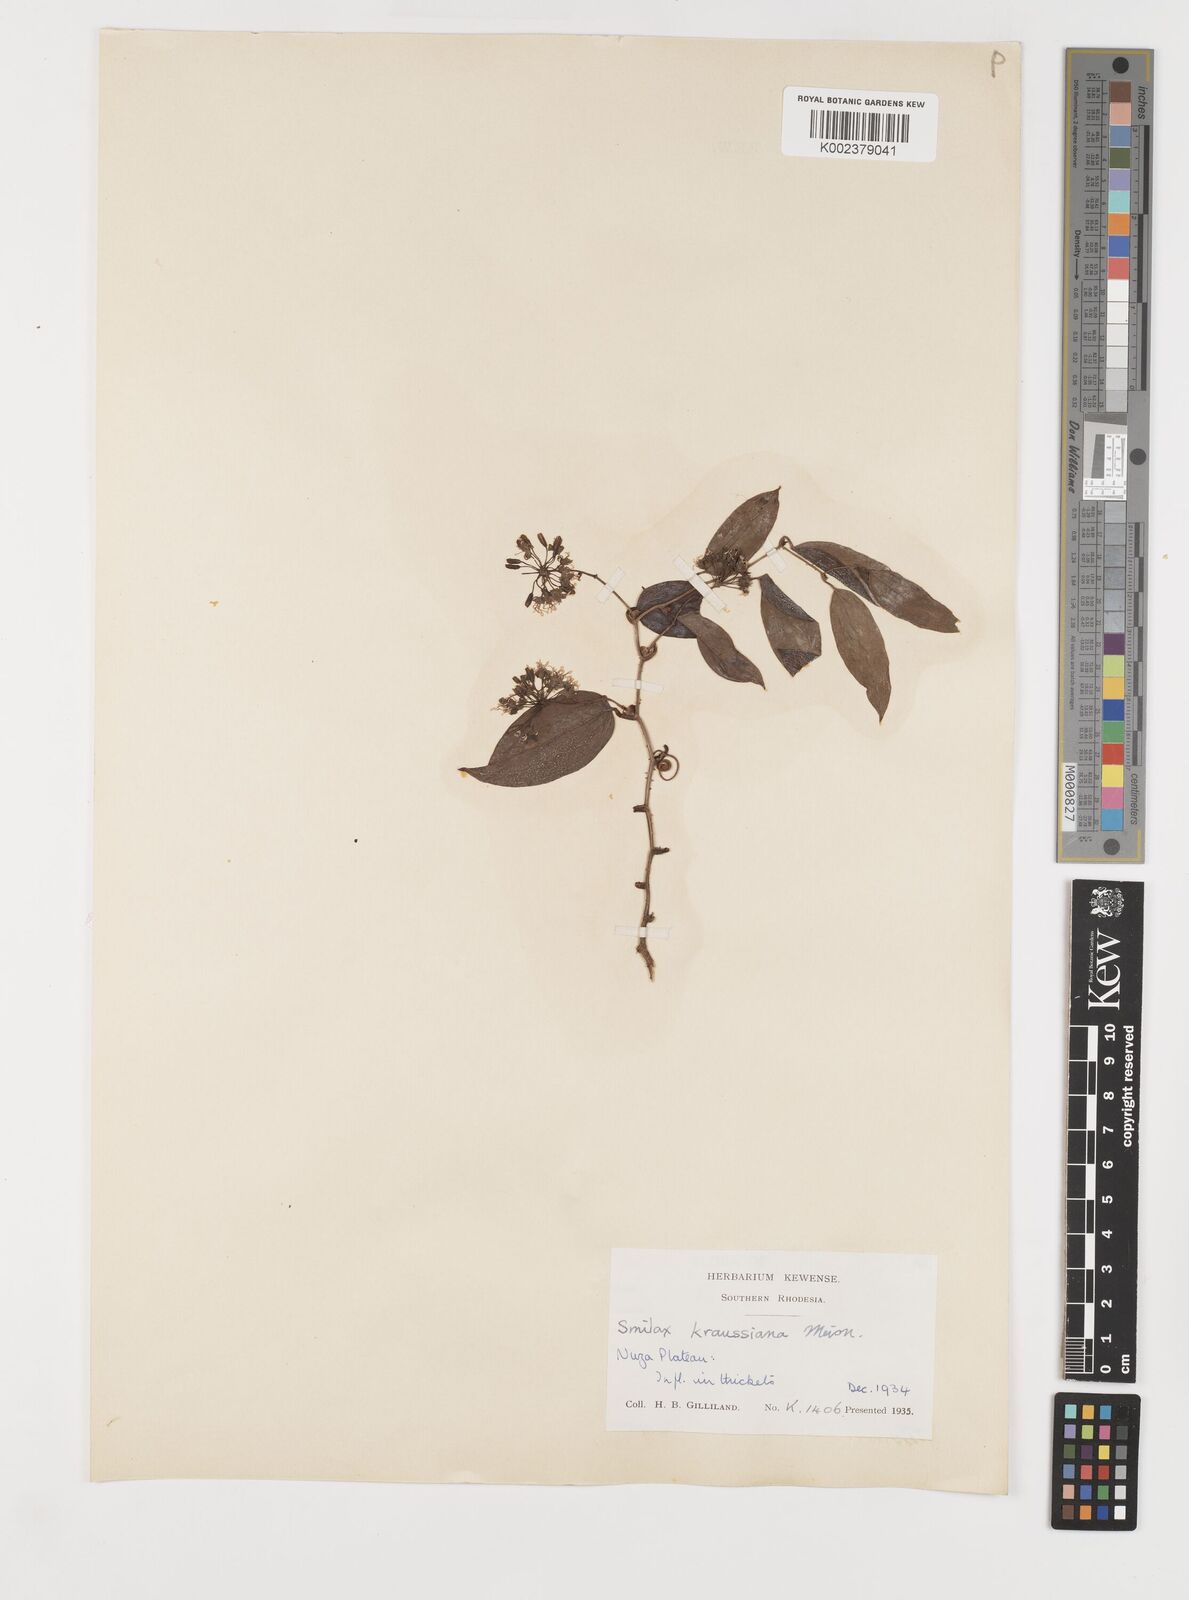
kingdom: Plantae
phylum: Tracheophyta
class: Liliopsida
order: Liliales
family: Smilacaceae
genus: Smilax
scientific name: Smilax anceps
